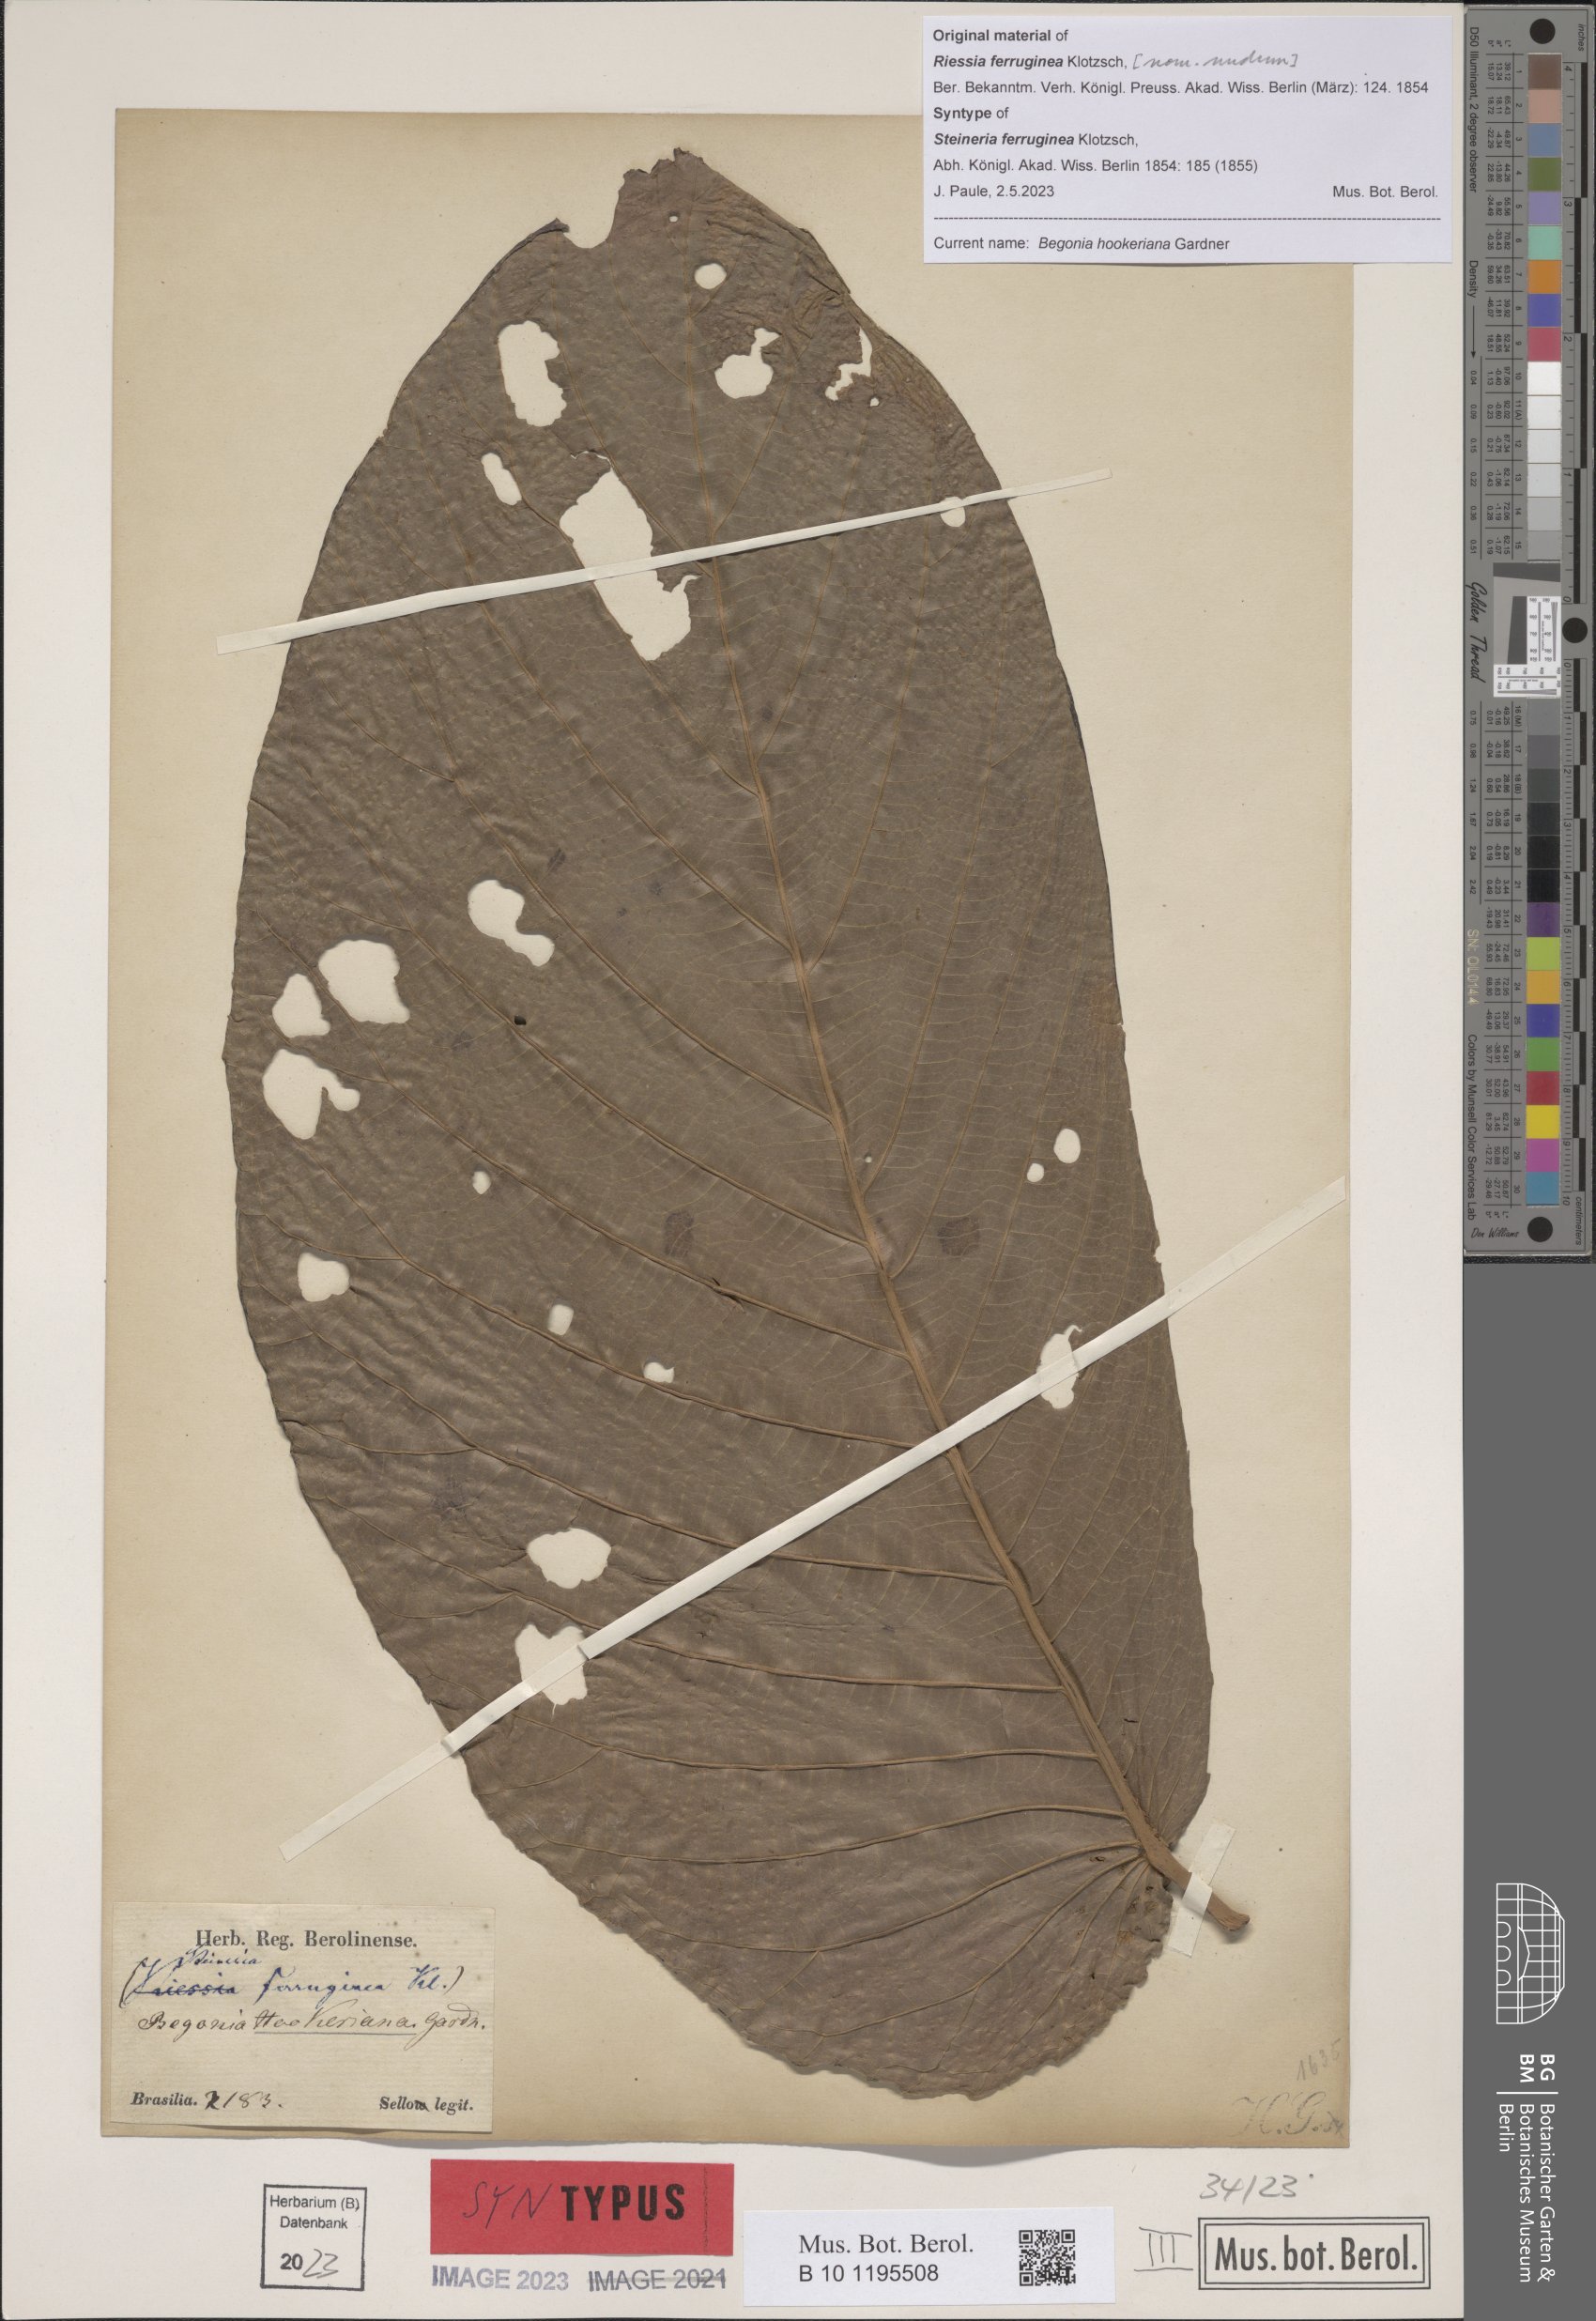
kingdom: Plantae
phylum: Tracheophyta
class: Magnoliopsida
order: Cucurbitales
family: Begoniaceae
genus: Begonia
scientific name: Begonia hookeriana
